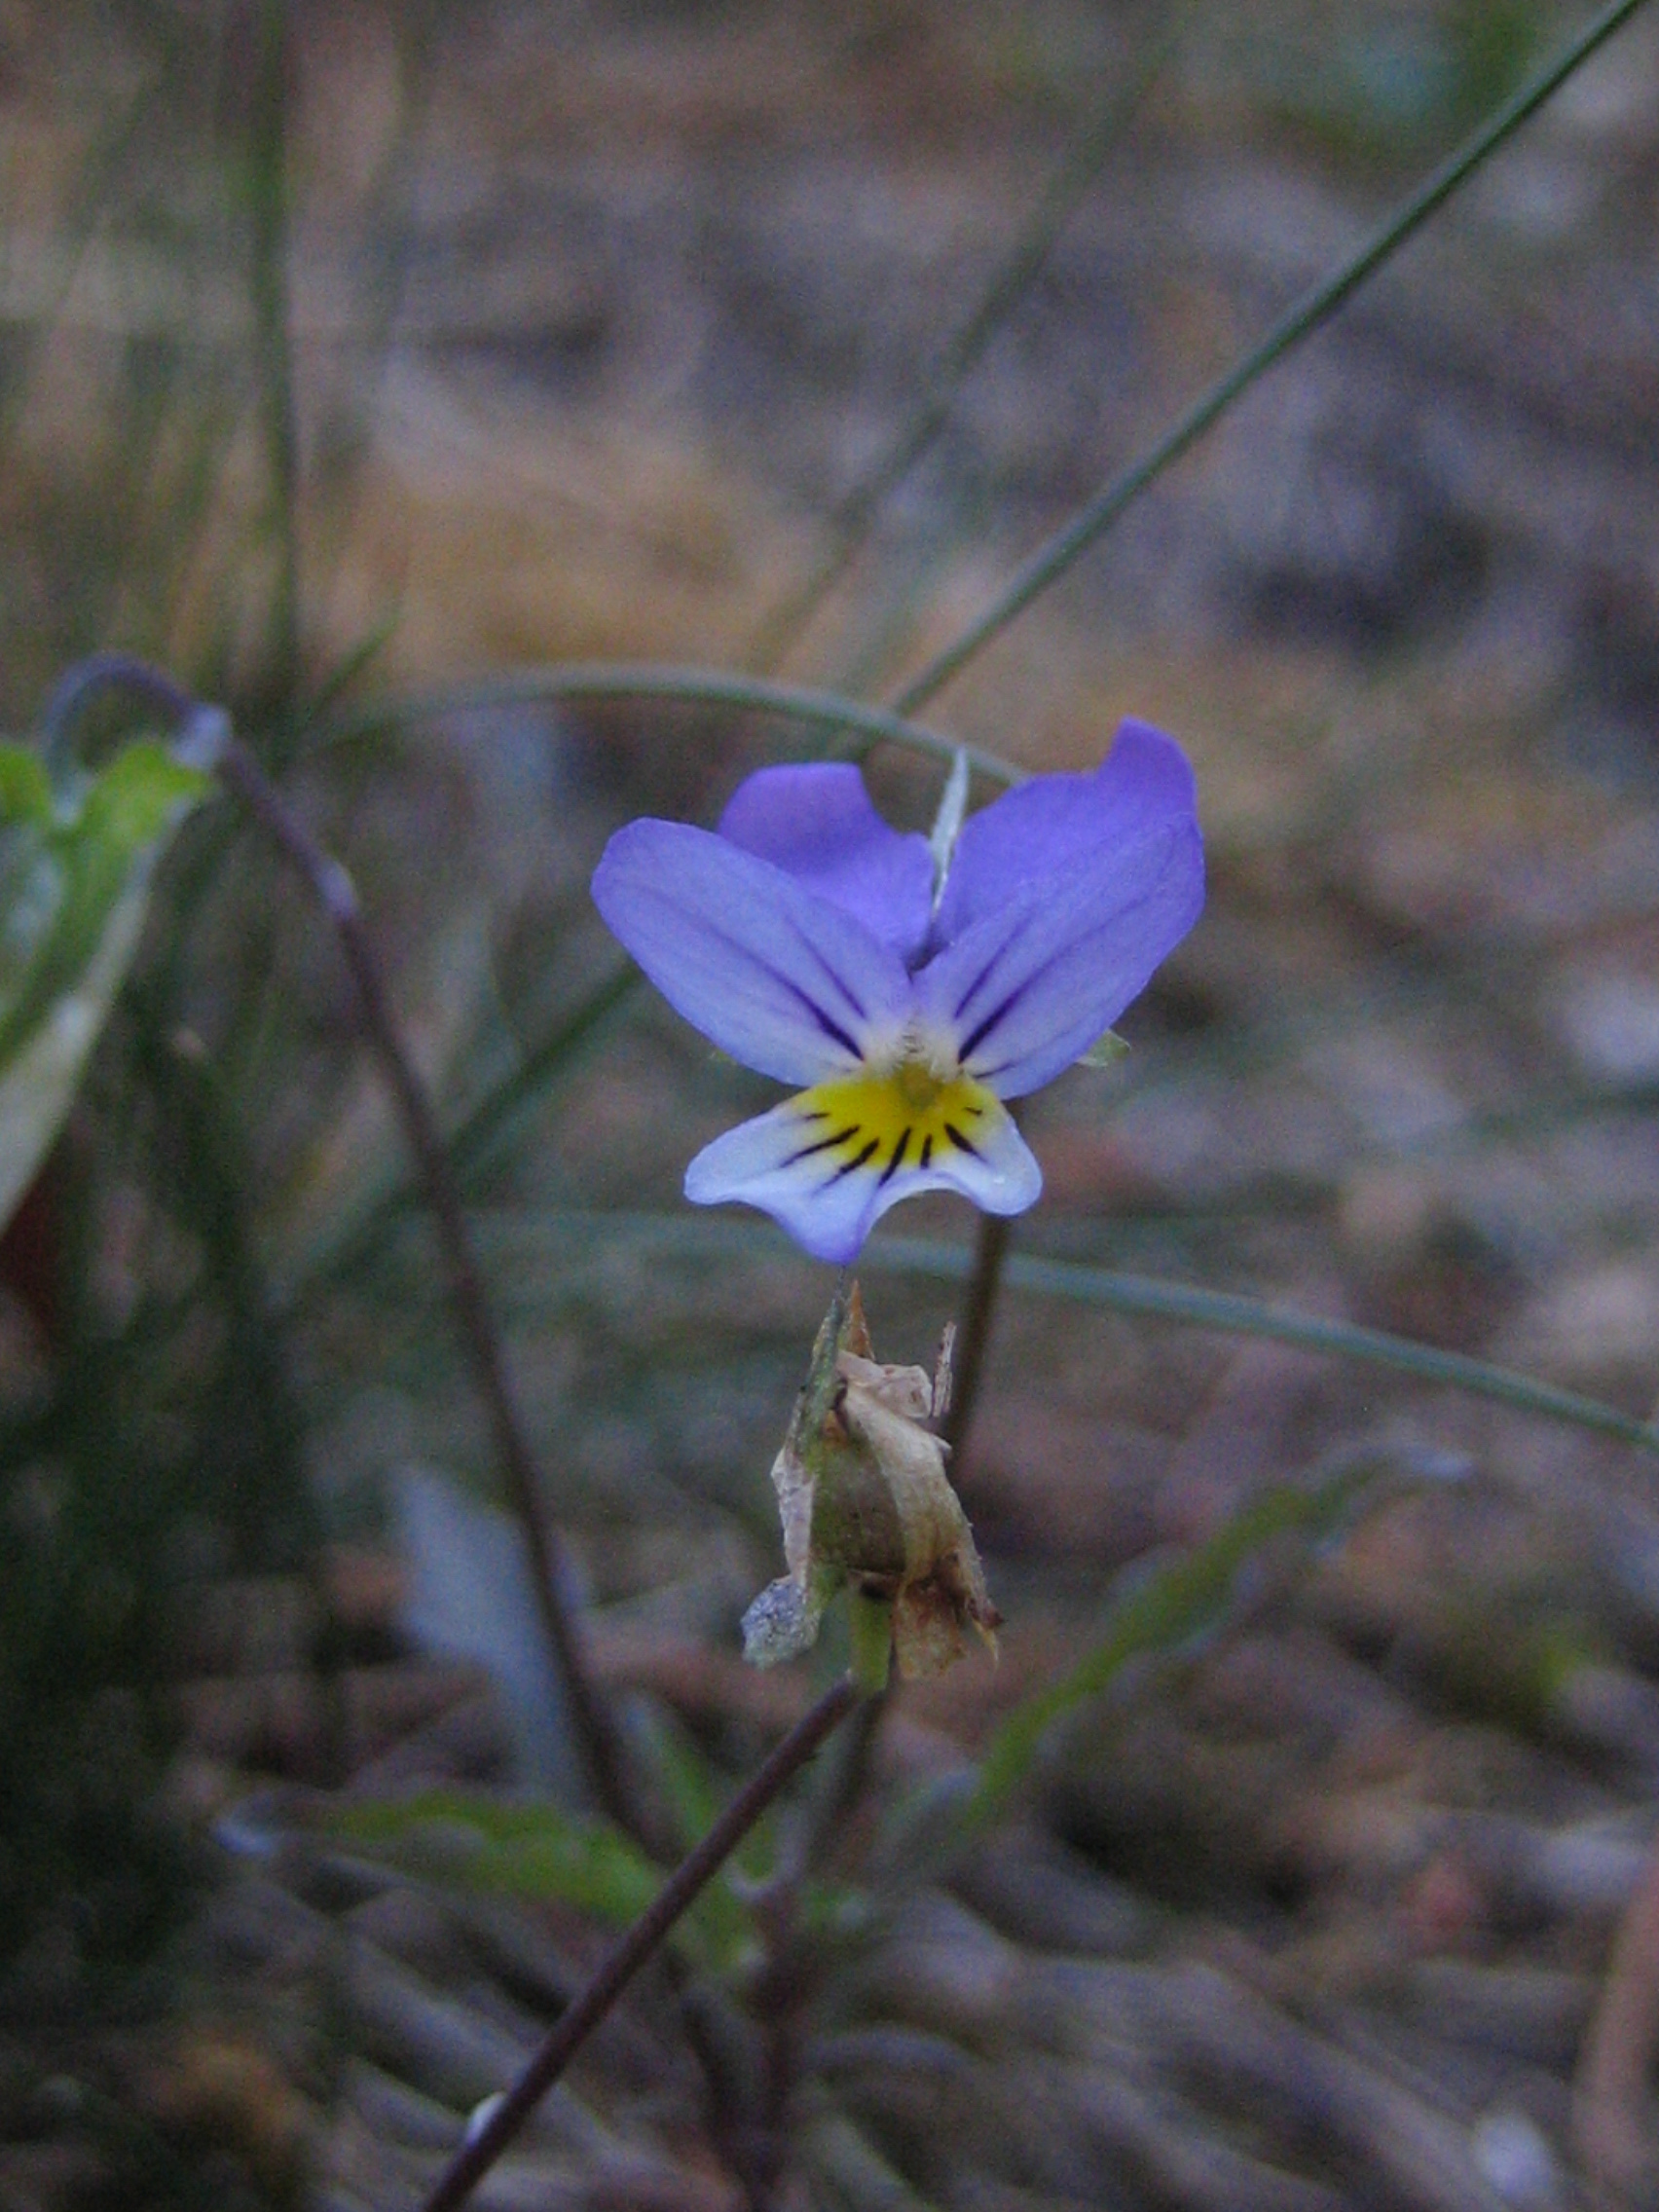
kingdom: Plantae
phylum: Tracheophyta
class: Magnoliopsida
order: Malpighiales
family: Violaceae
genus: Viola
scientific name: Viola tricolor
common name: Pansy
